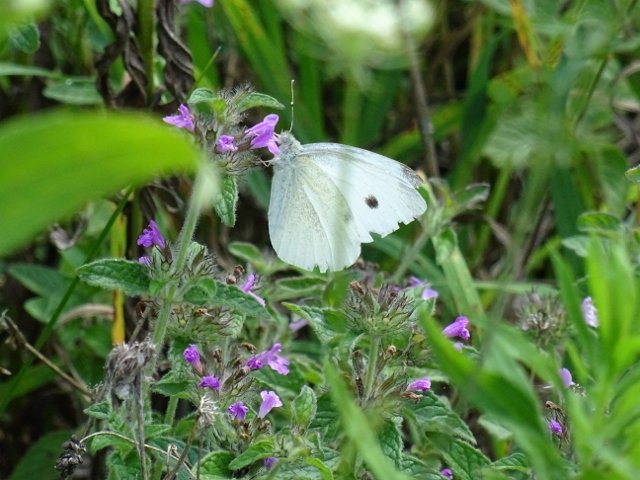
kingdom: Animalia
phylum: Arthropoda
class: Insecta
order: Lepidoptera
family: Pieridae
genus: Pieris
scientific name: Pieris rapae
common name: Cabbage White
